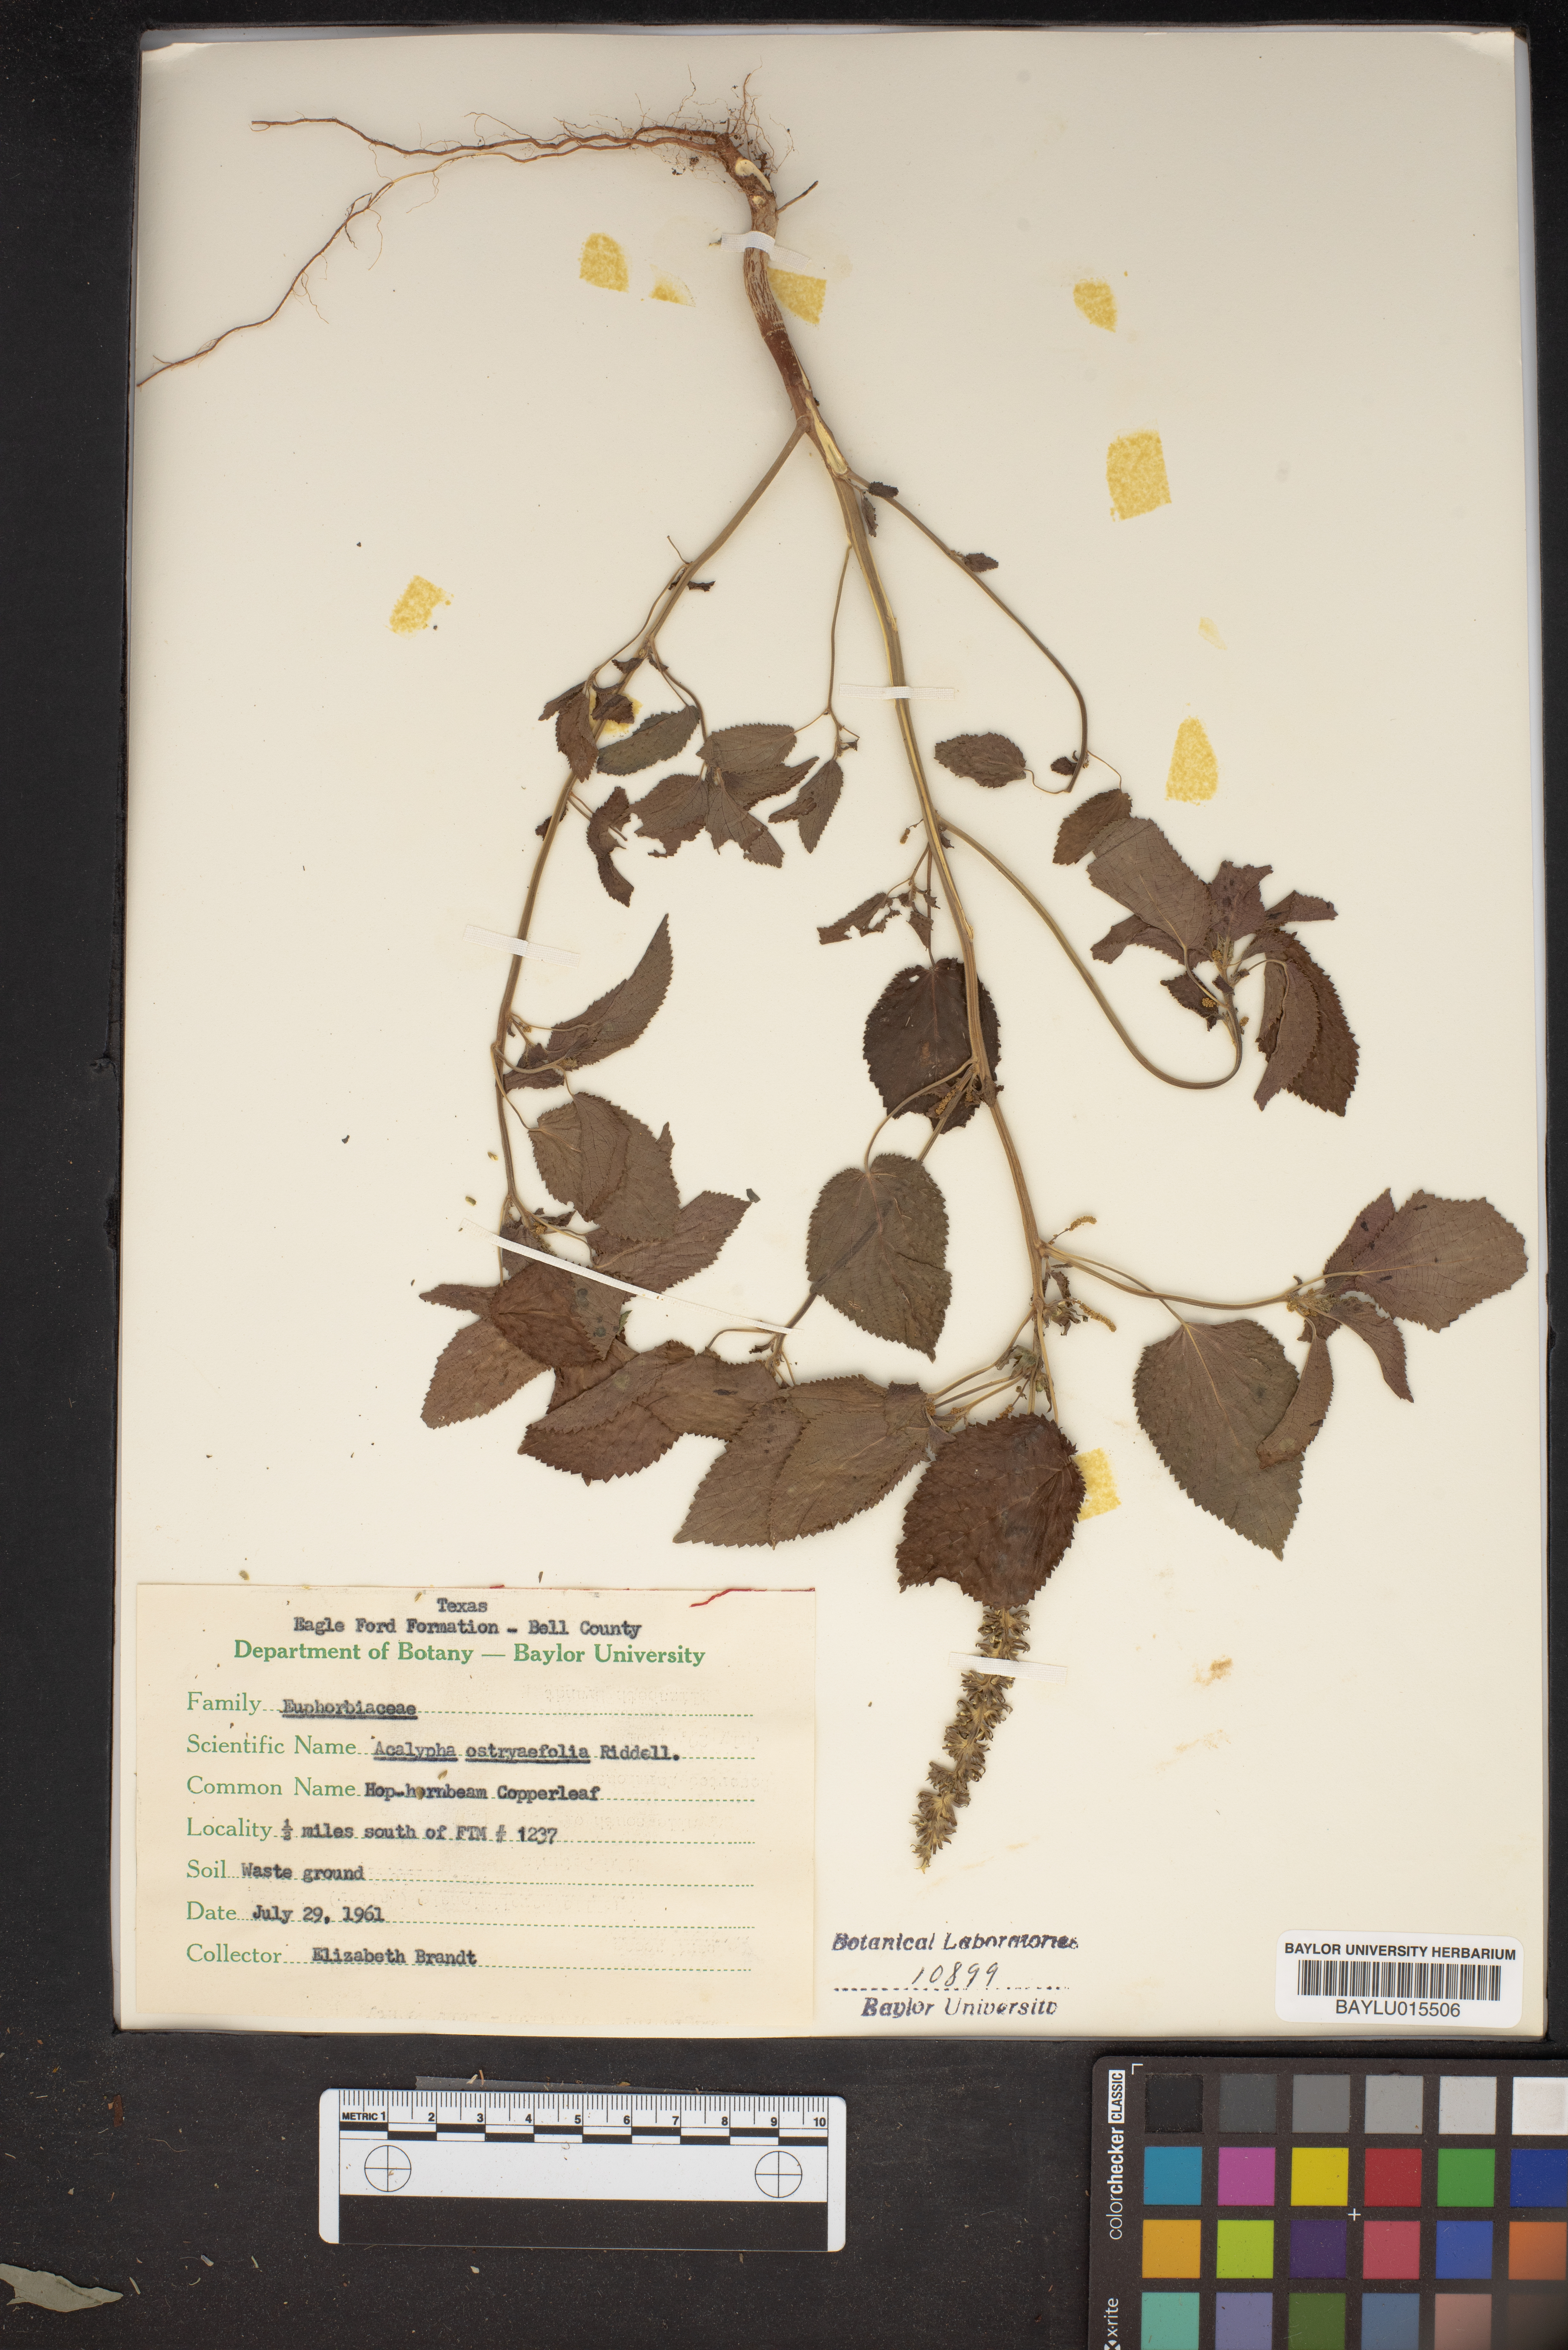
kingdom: Plantae
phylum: Tracheophyta
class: Magnoliopsida
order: Malpighiales
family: Euphorbiaceae
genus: Acalypha
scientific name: Acalypha ostryifolia
